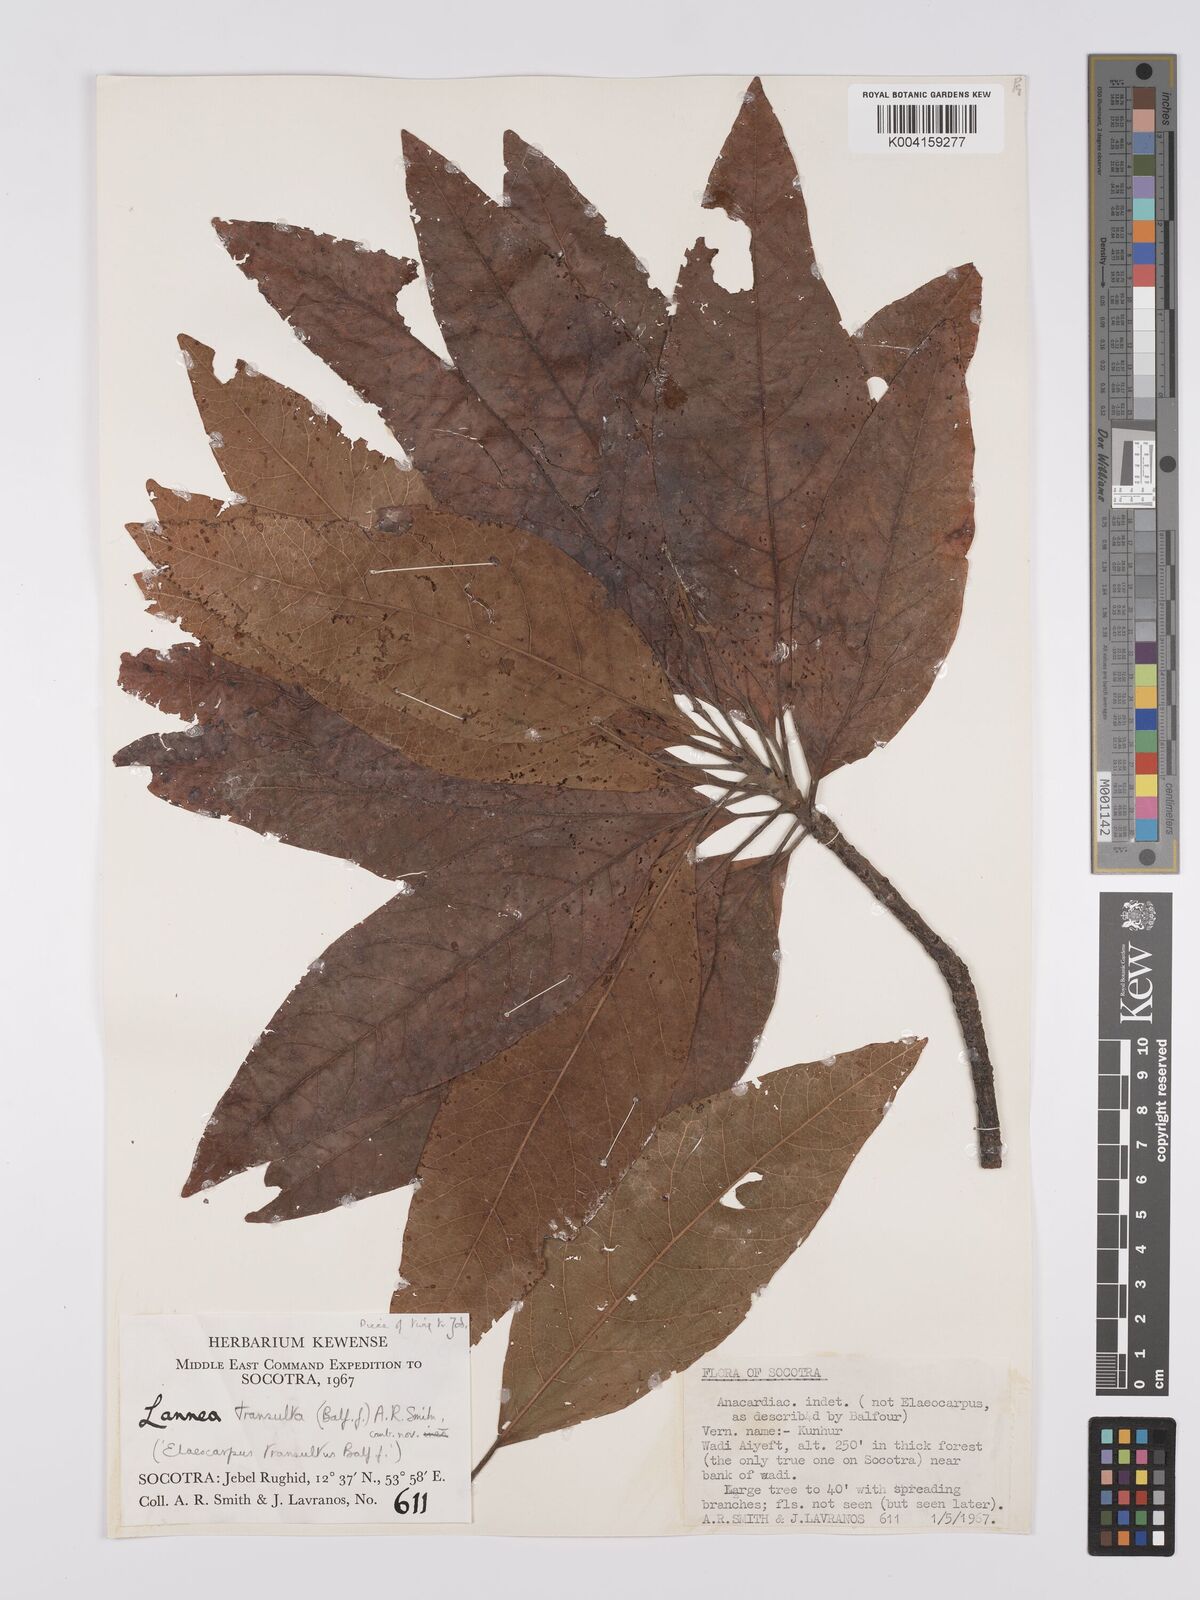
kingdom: Plantae
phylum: Tracheophyta
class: Magnoliopsida
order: Sapindales
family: Anacardiaceae
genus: Lannea
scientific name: Lannea transulta
